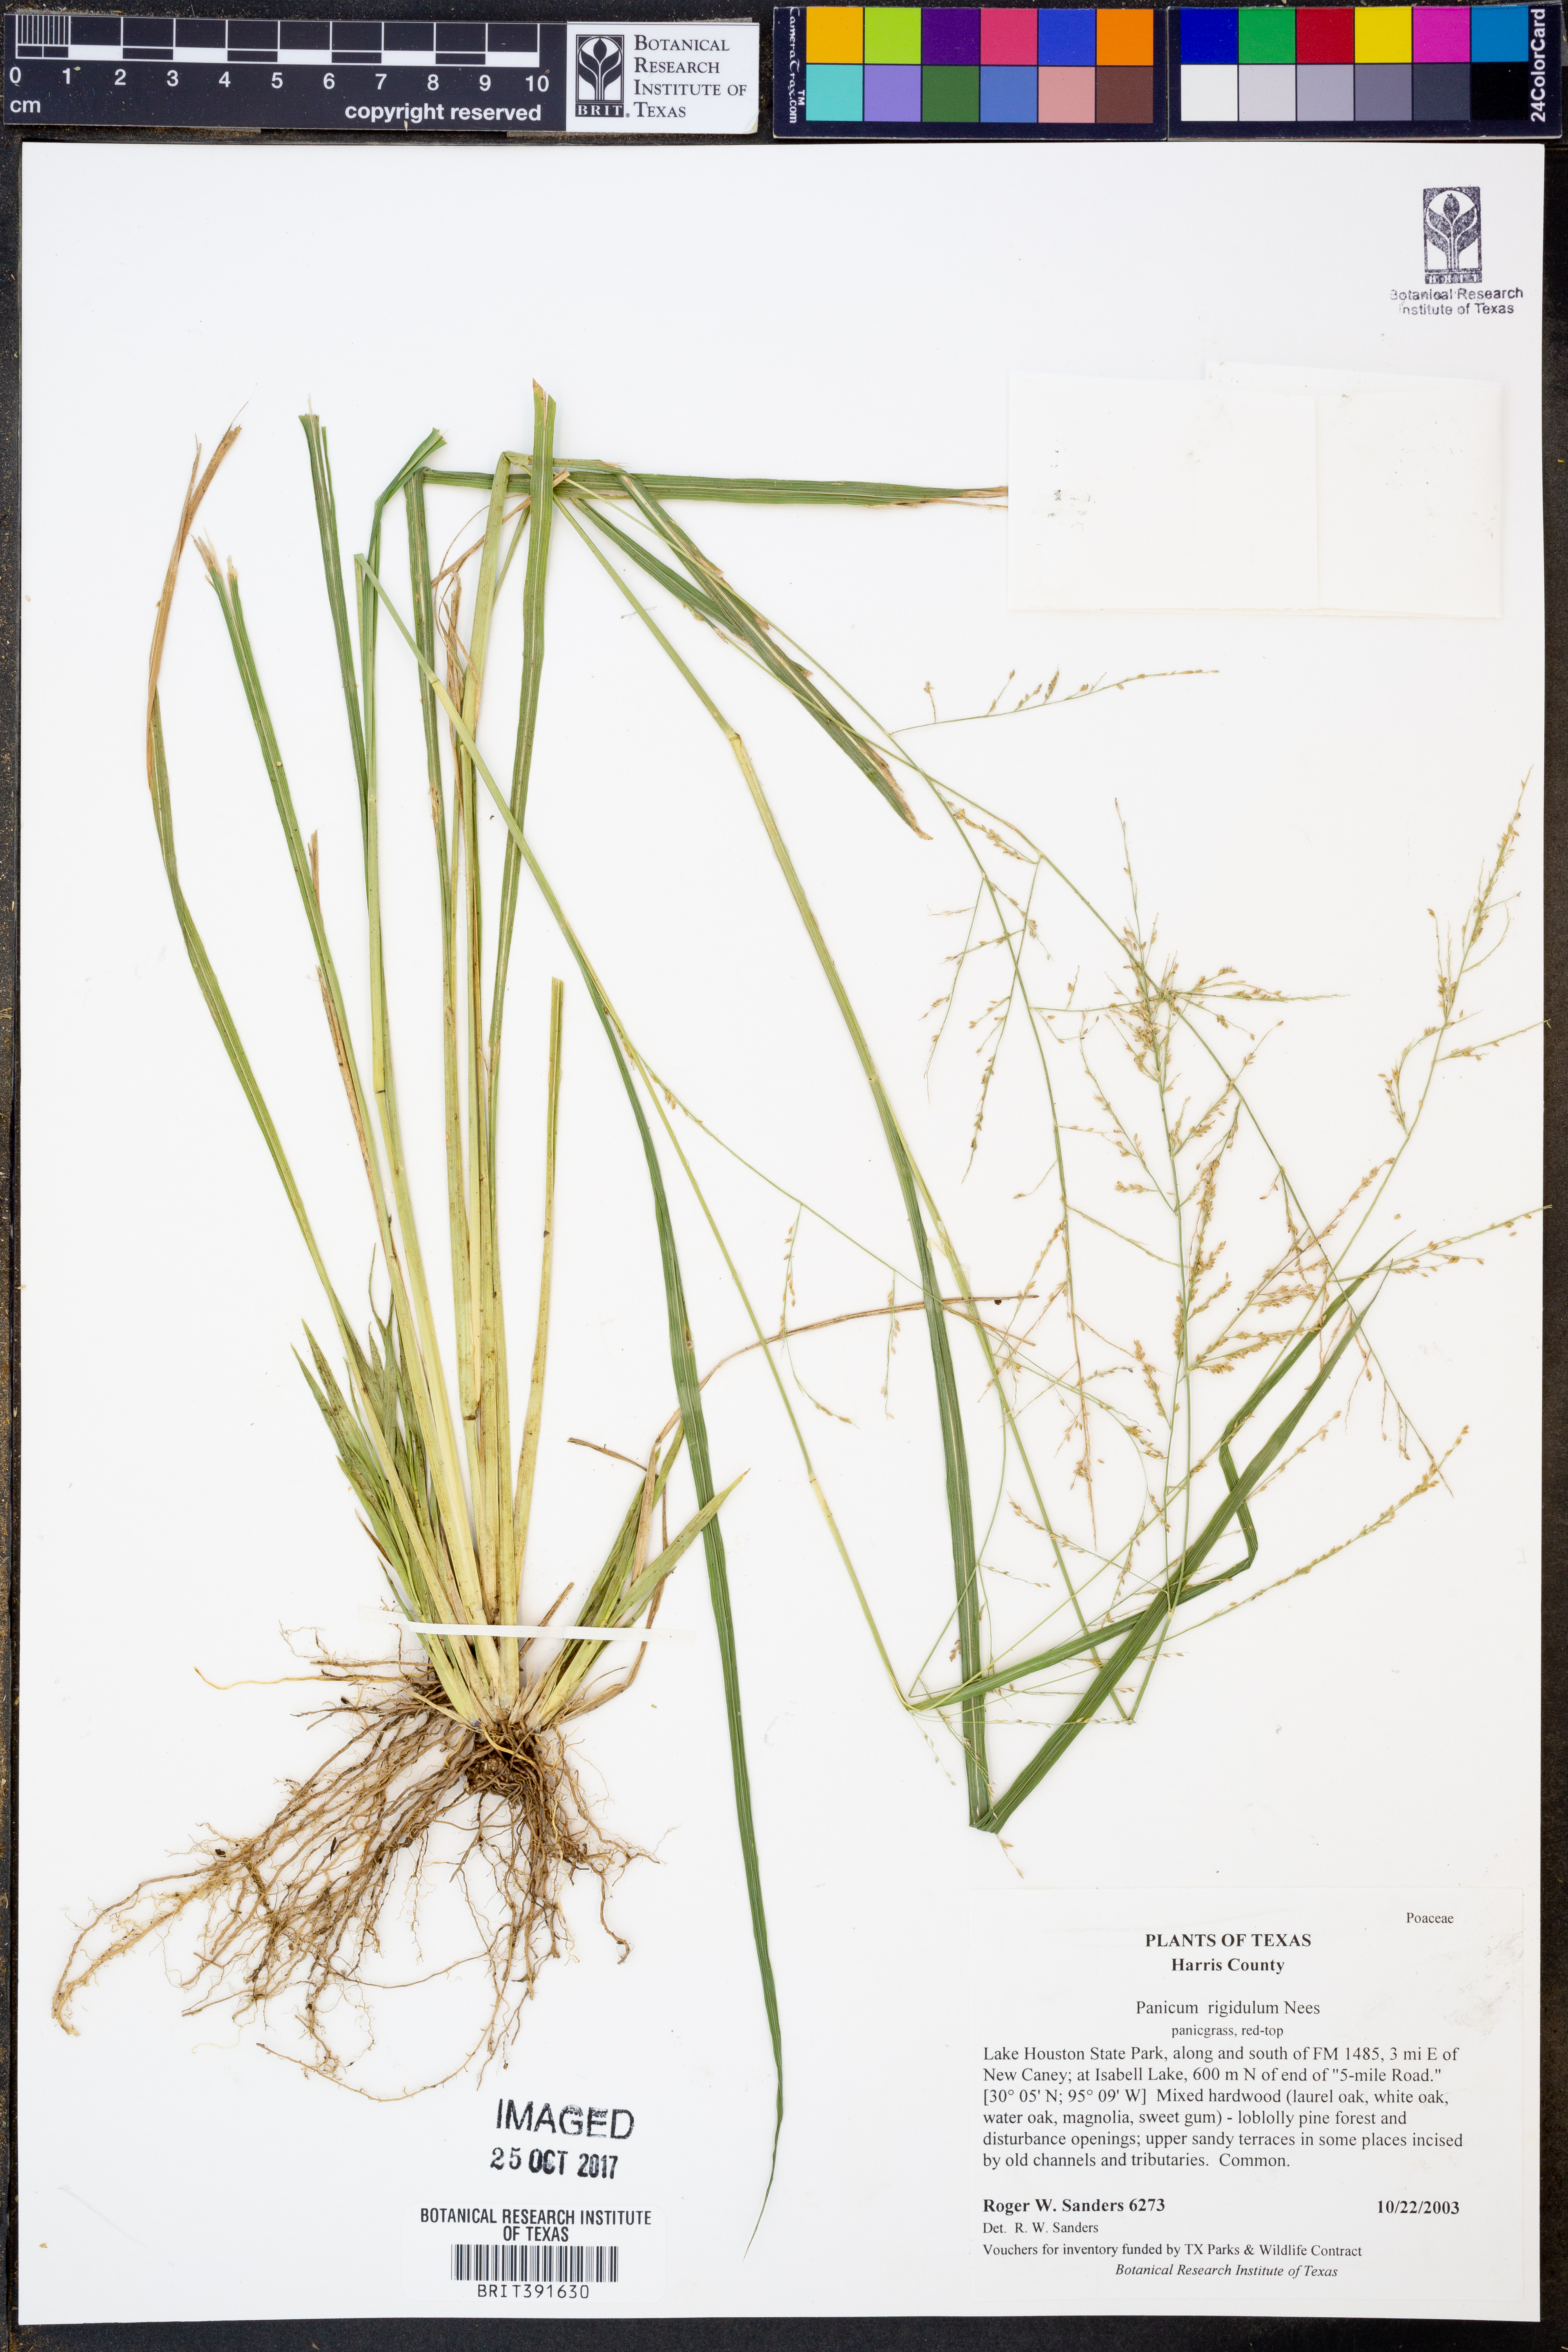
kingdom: Plantae
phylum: Tracheophyta
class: Liliopsida
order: Poales
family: Poaceae
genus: Coleataenia
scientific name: Coleataenia rigidula
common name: Redtop panicgrass
